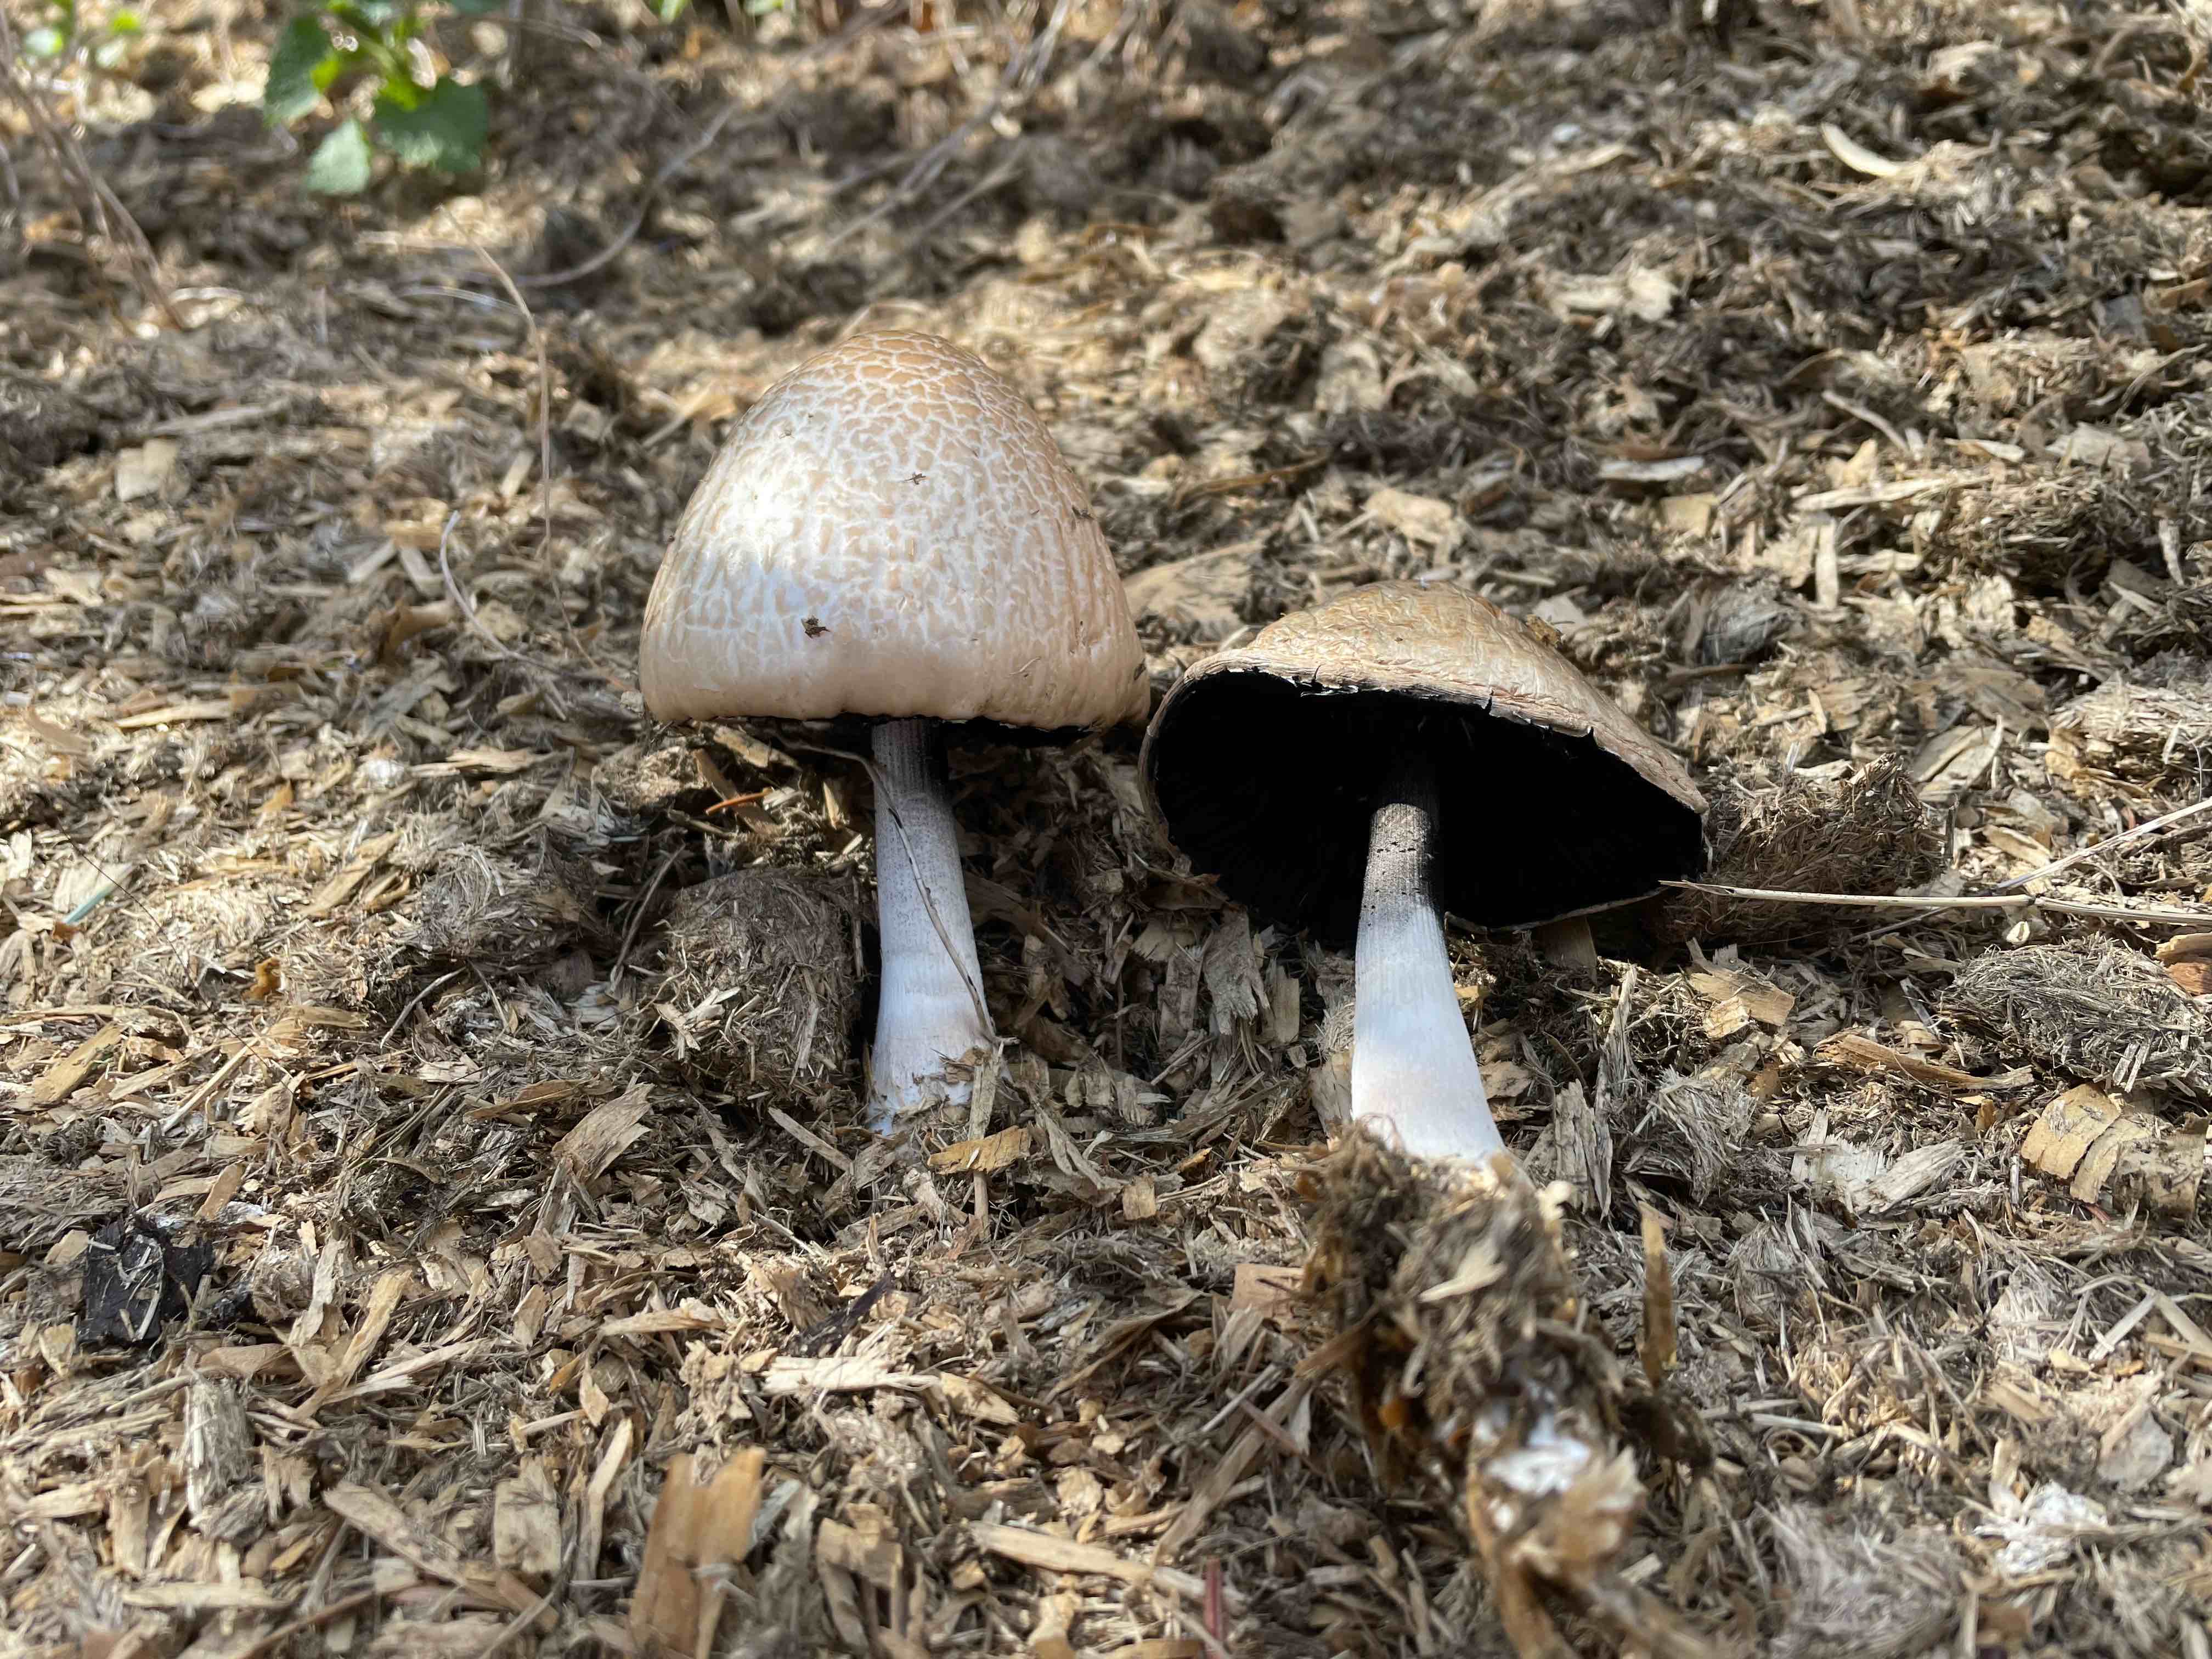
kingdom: Fungi
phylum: Basidiomycota
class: Agaricomycetes
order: Agaricales
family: Bolbitiaceae
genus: Panaeolus
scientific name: Panaeolus semiovatus
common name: ring-glanshat
